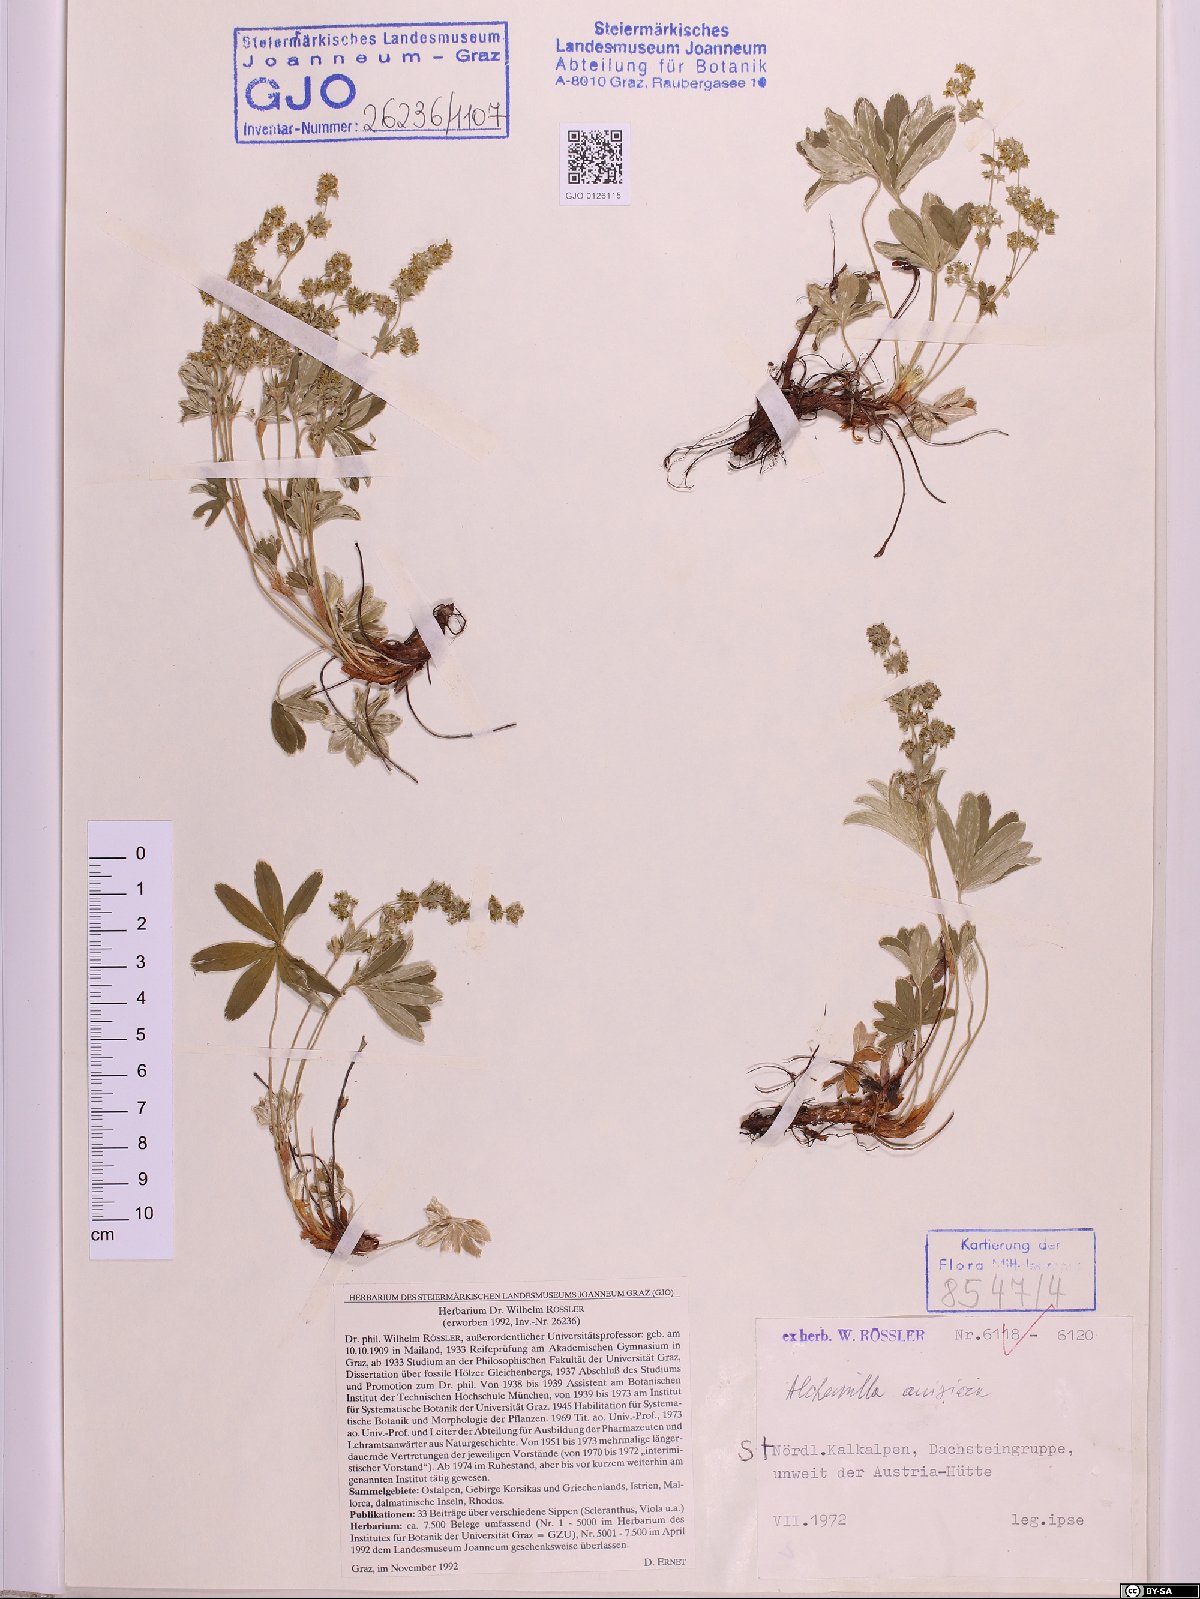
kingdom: Plantae
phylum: Tracheophyta
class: Magnoliopsida
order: Rosales
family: Rosaceae
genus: Alchemilla
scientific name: Alchemilla anisiaca
